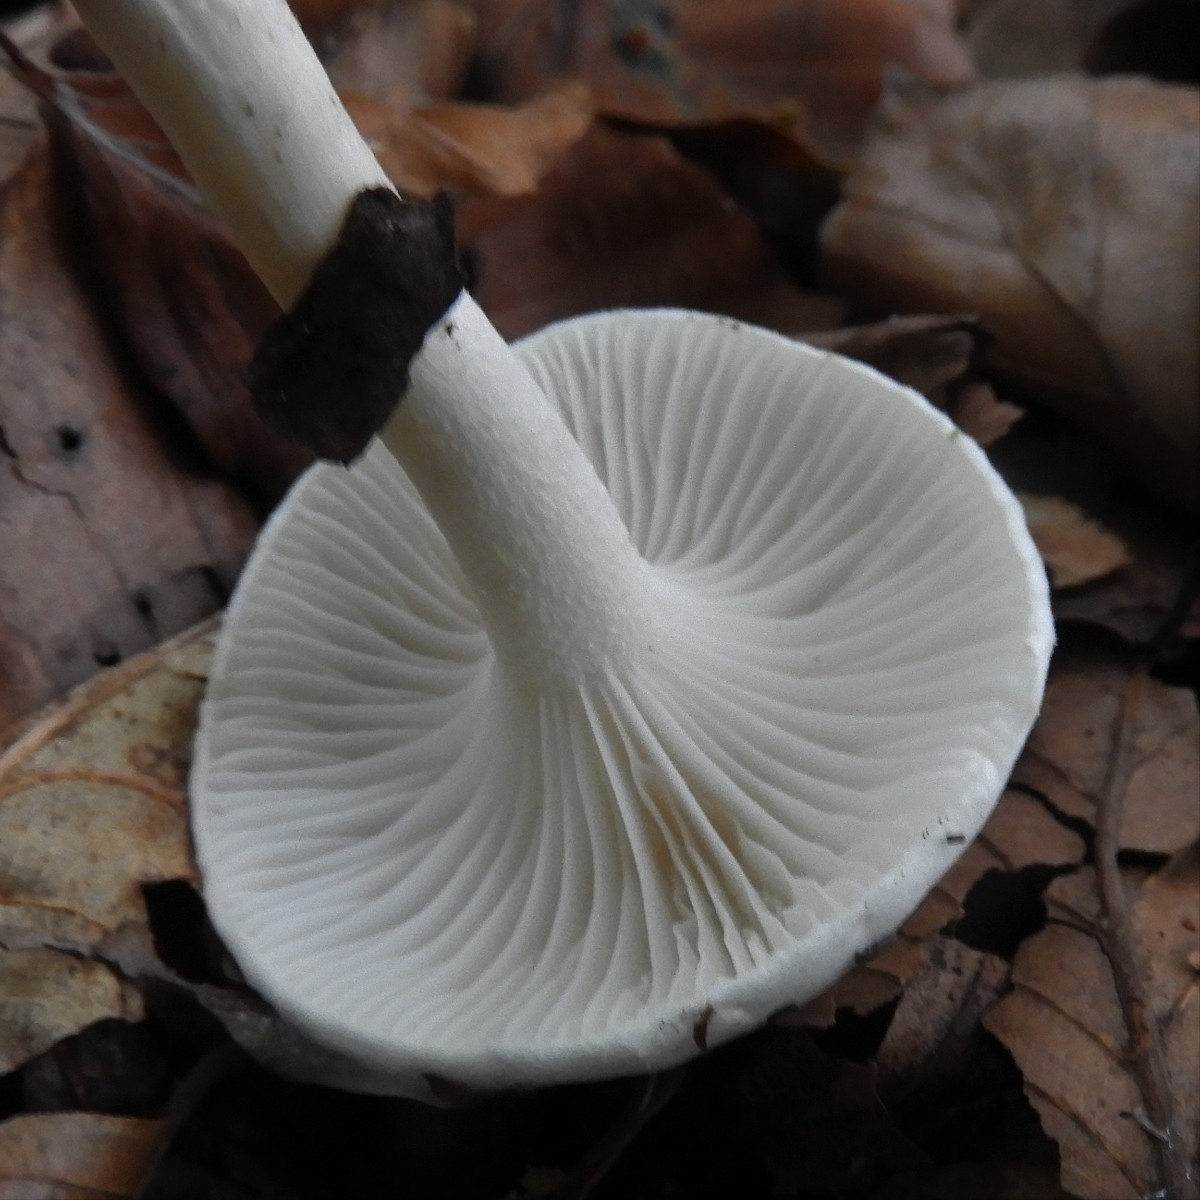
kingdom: Fungi
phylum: Basidiomycota
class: Agaricomycetes
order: Agaricales
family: Hygrophoraceae
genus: Hygrophorus
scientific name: Hygrophorus eburneus
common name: elfenbens-sneglehat
